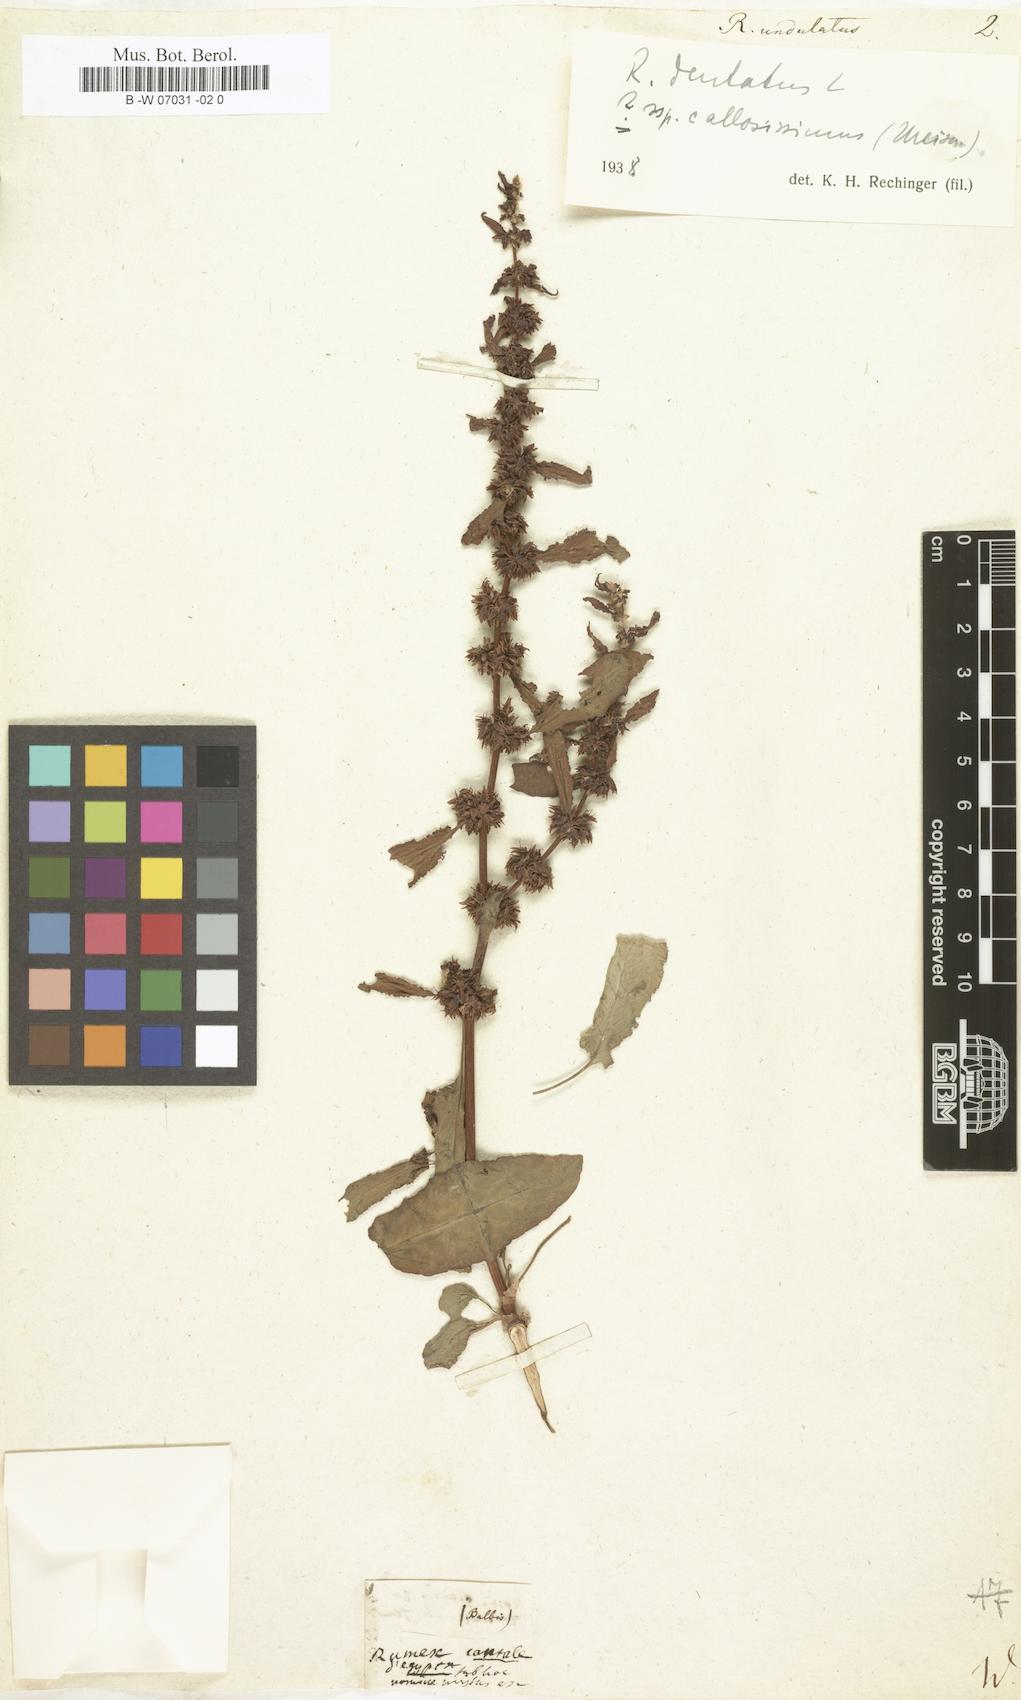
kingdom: Plantae
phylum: Tracheophyta
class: Magnoliopsida
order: Caryophyllales
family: Polygonaceae
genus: Rumex
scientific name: Rumex
